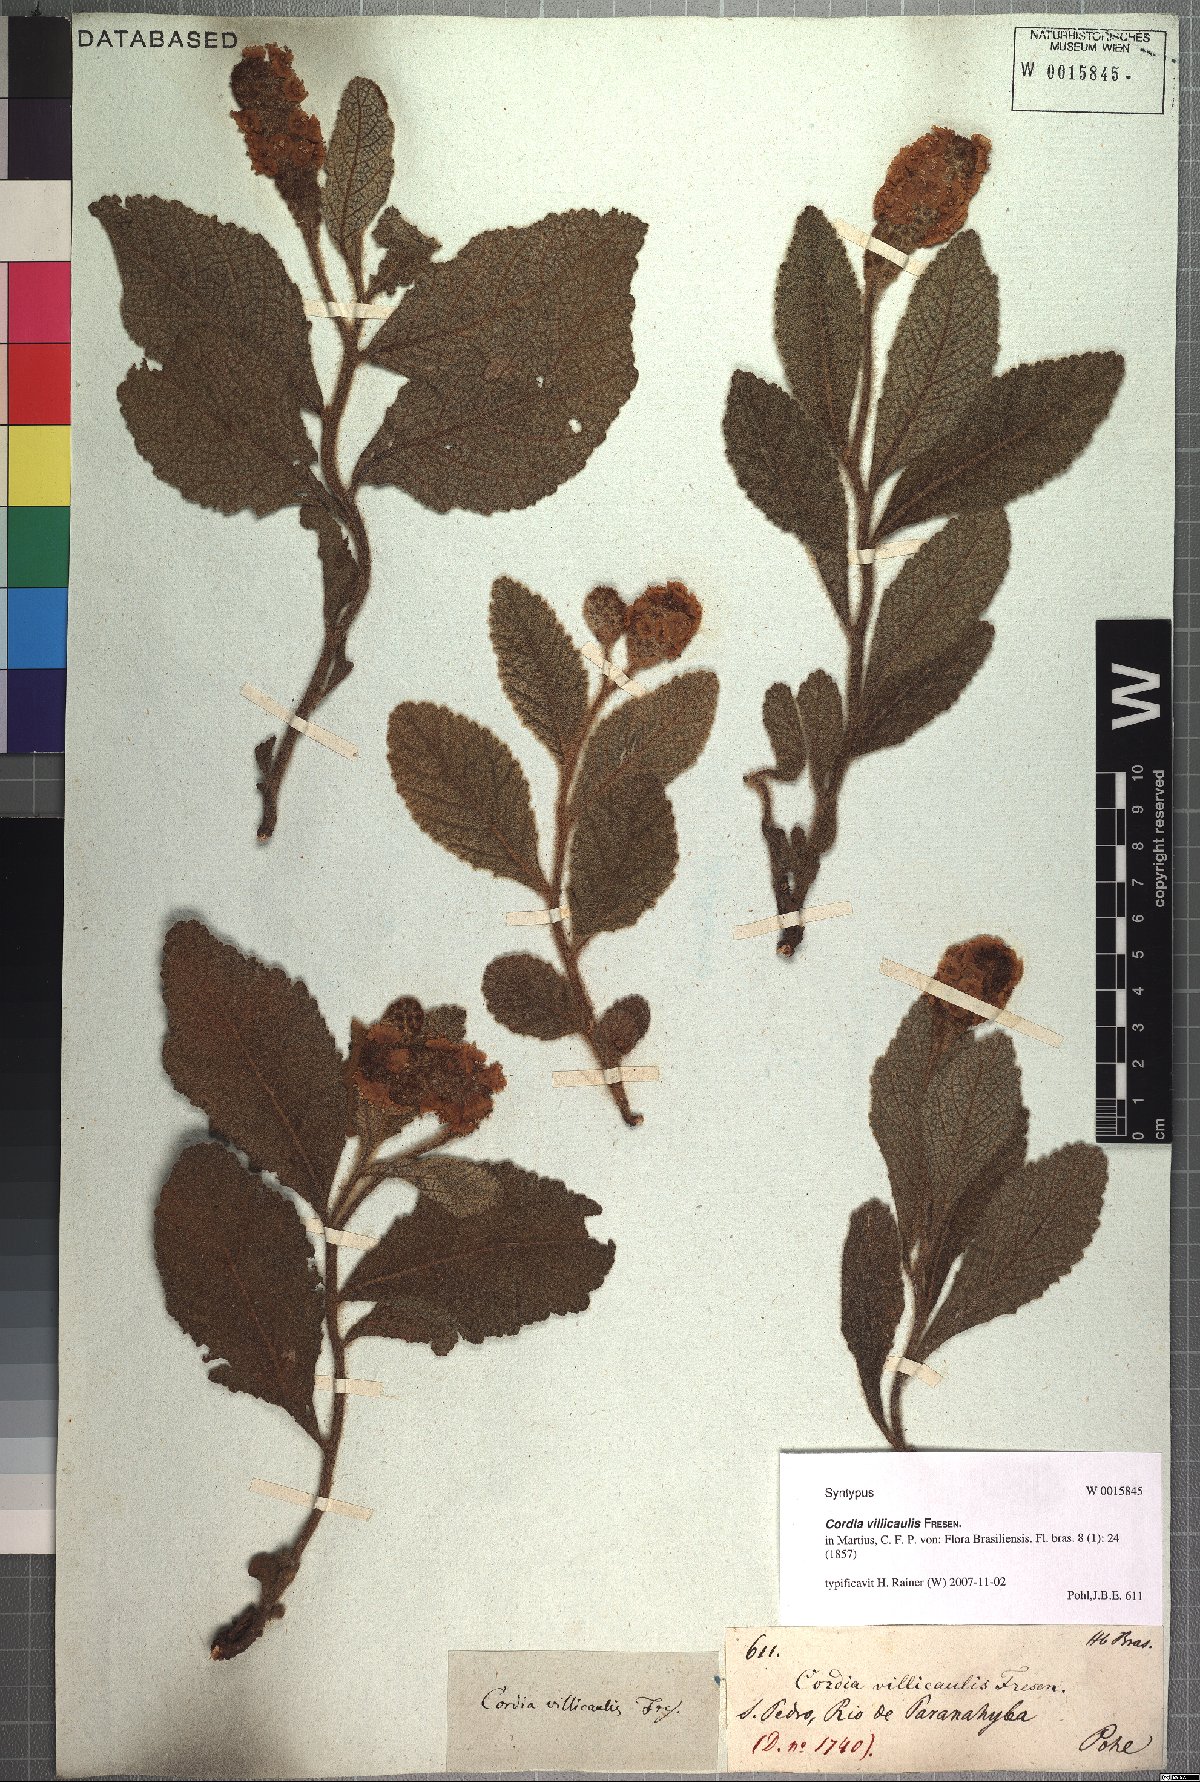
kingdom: Plantae
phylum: Tracheophyta
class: Magnoliopsida
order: Boraginales
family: Cordiaceae
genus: Varronia
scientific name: Varronia sessilifolia
